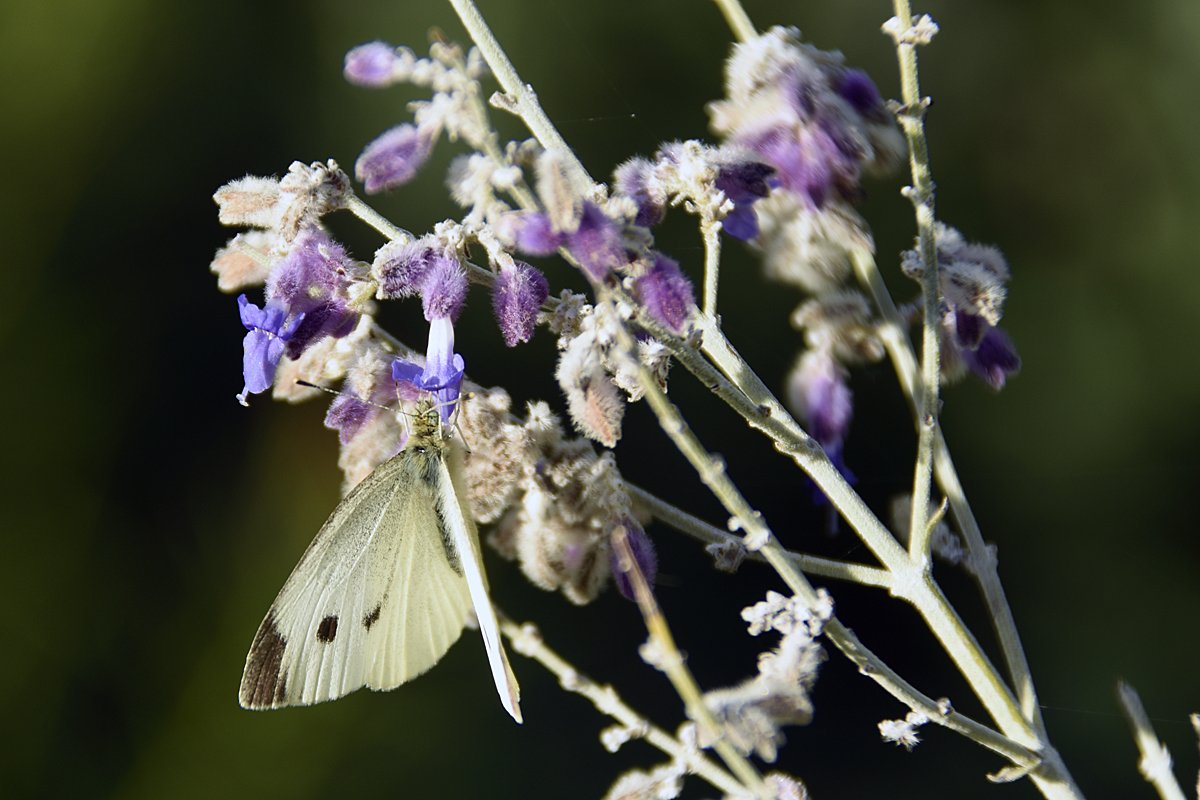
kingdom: Animalia
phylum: Arthropoda
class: Insecta
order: Lepidoptera
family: Pieridae
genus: Pieris
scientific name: Pieris rapae
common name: Cabbage White
